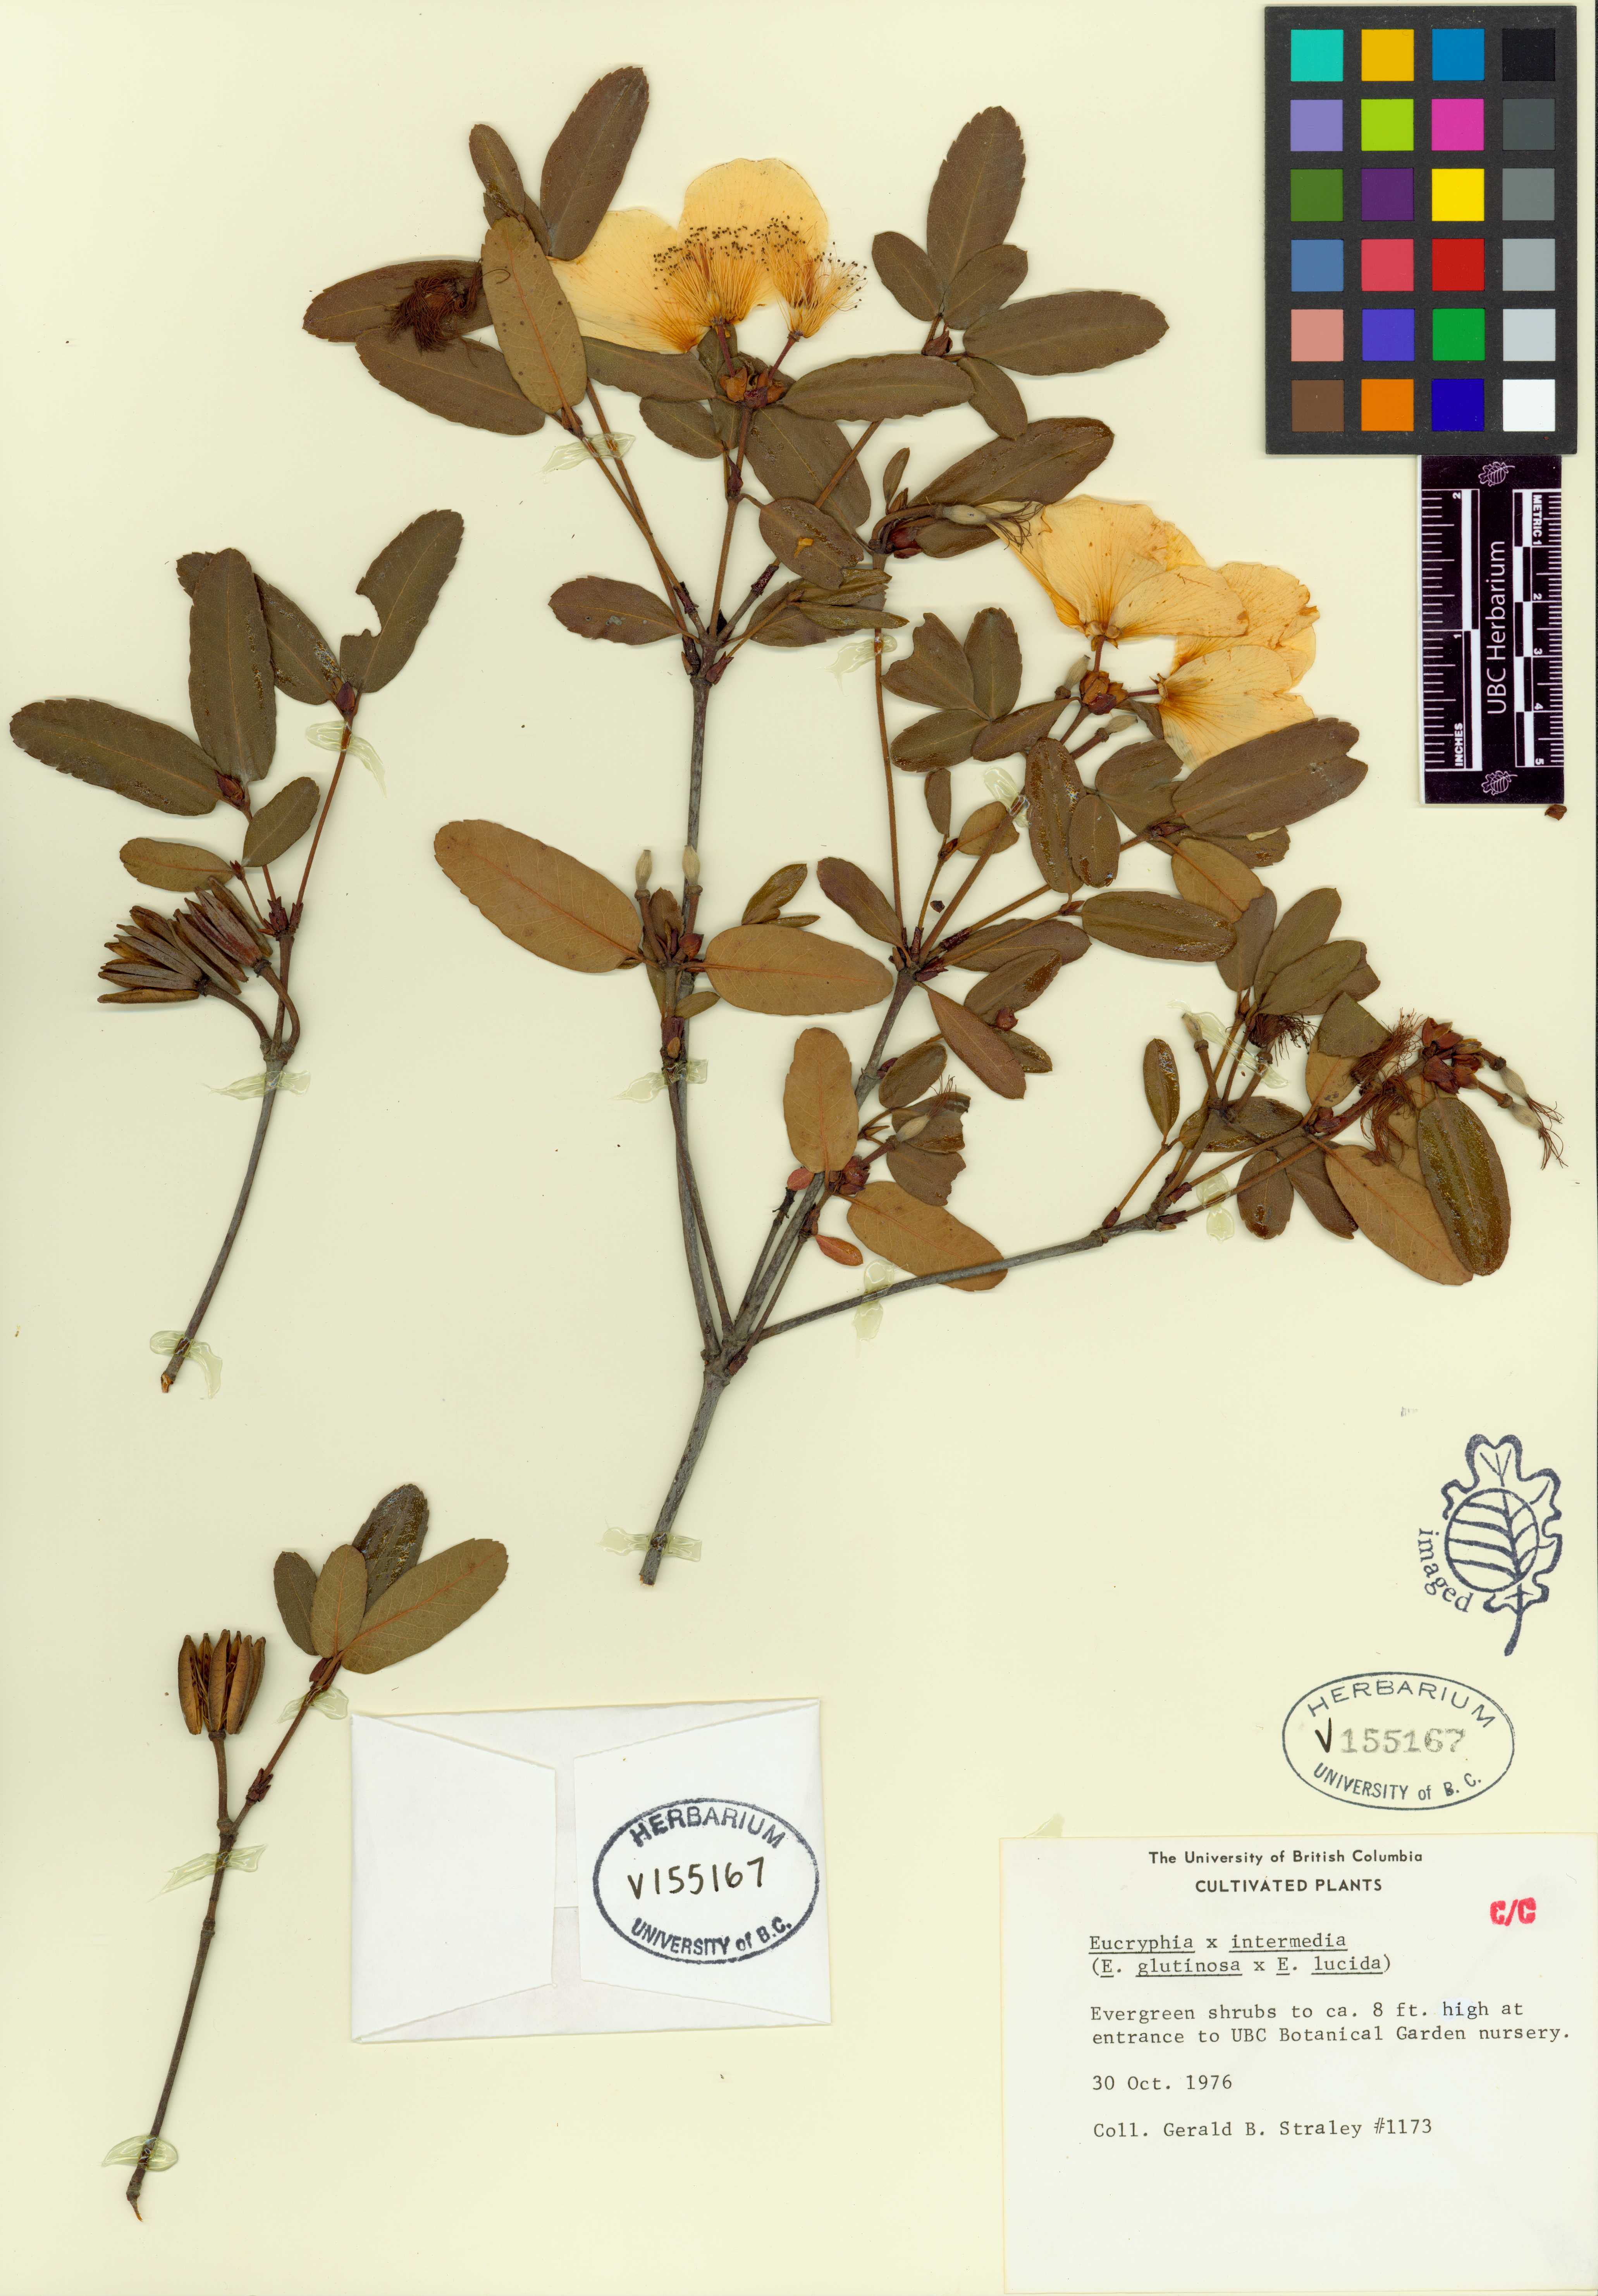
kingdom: Plantae
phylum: Tracheophyta
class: Magnoliopsida
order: Oxalidales
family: Cunoniaceae
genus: Eucryphia
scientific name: Eucryphia
